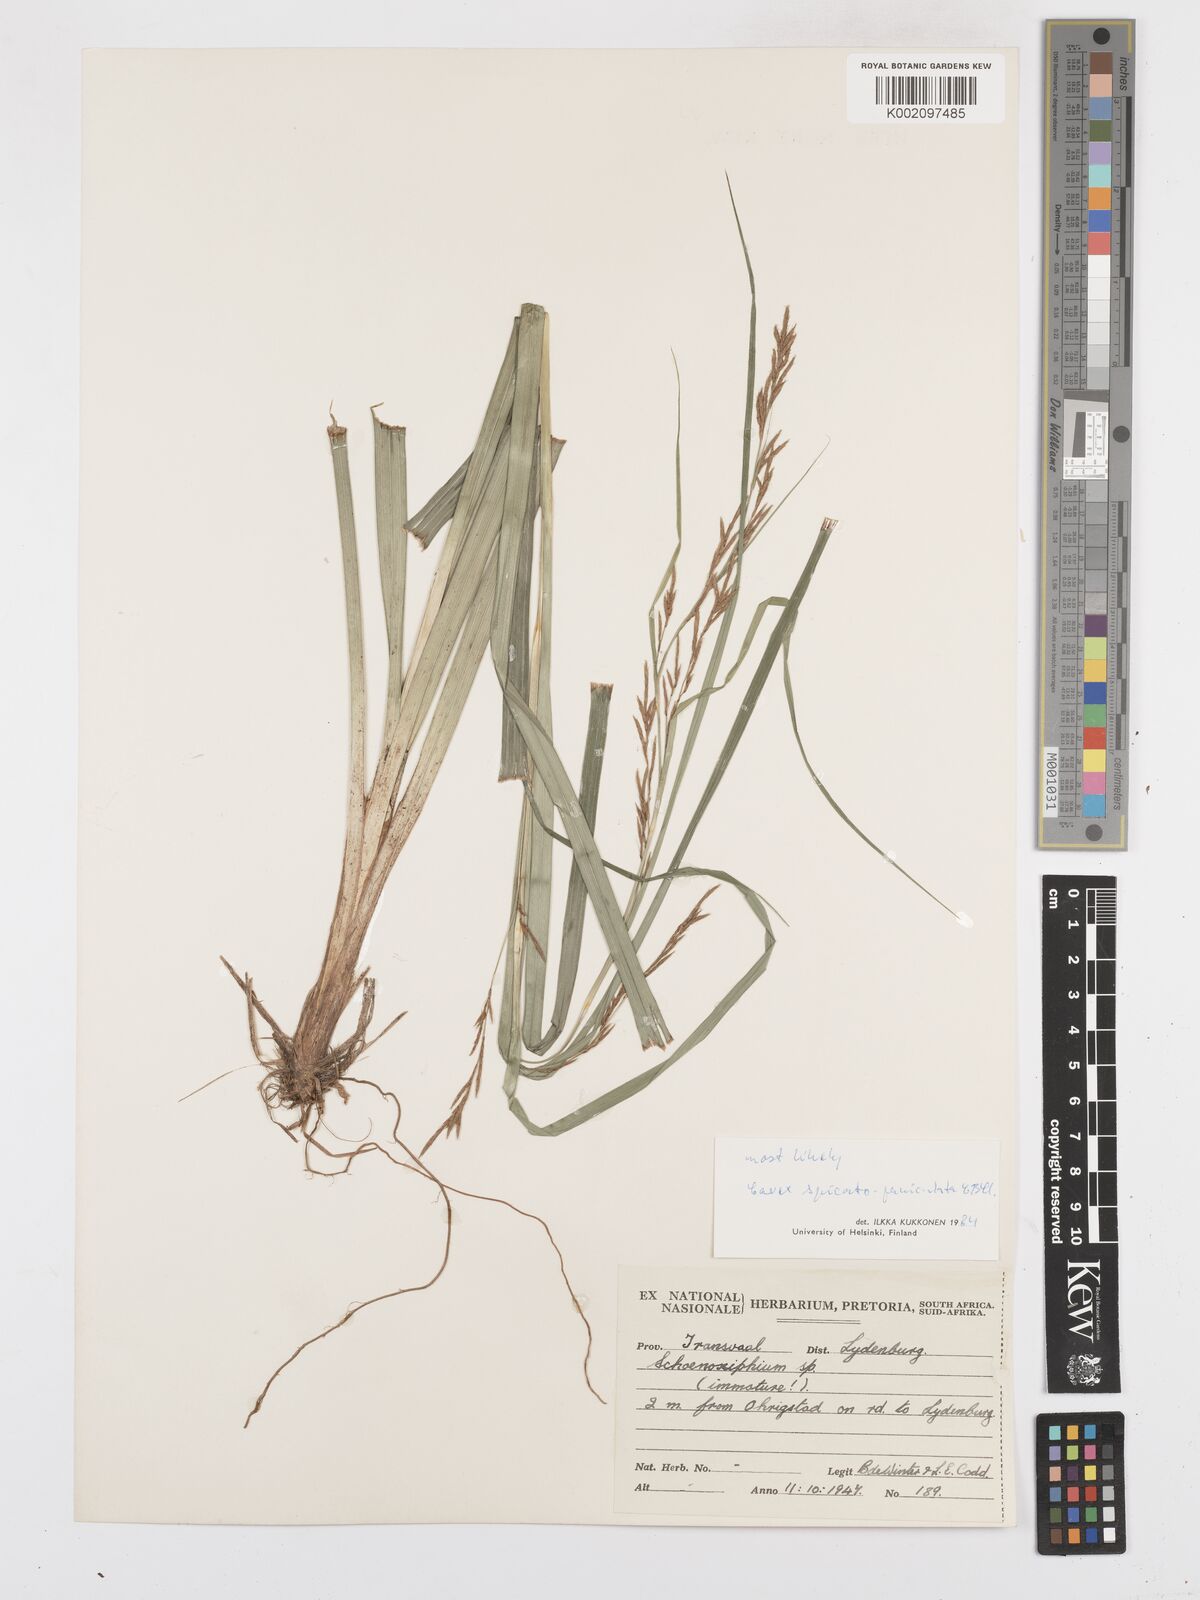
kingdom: Plantae
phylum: Tracheophyta
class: Liliopsida
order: Poales
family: Cyperaceae
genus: Carex
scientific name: Carex spicatopaniculata
